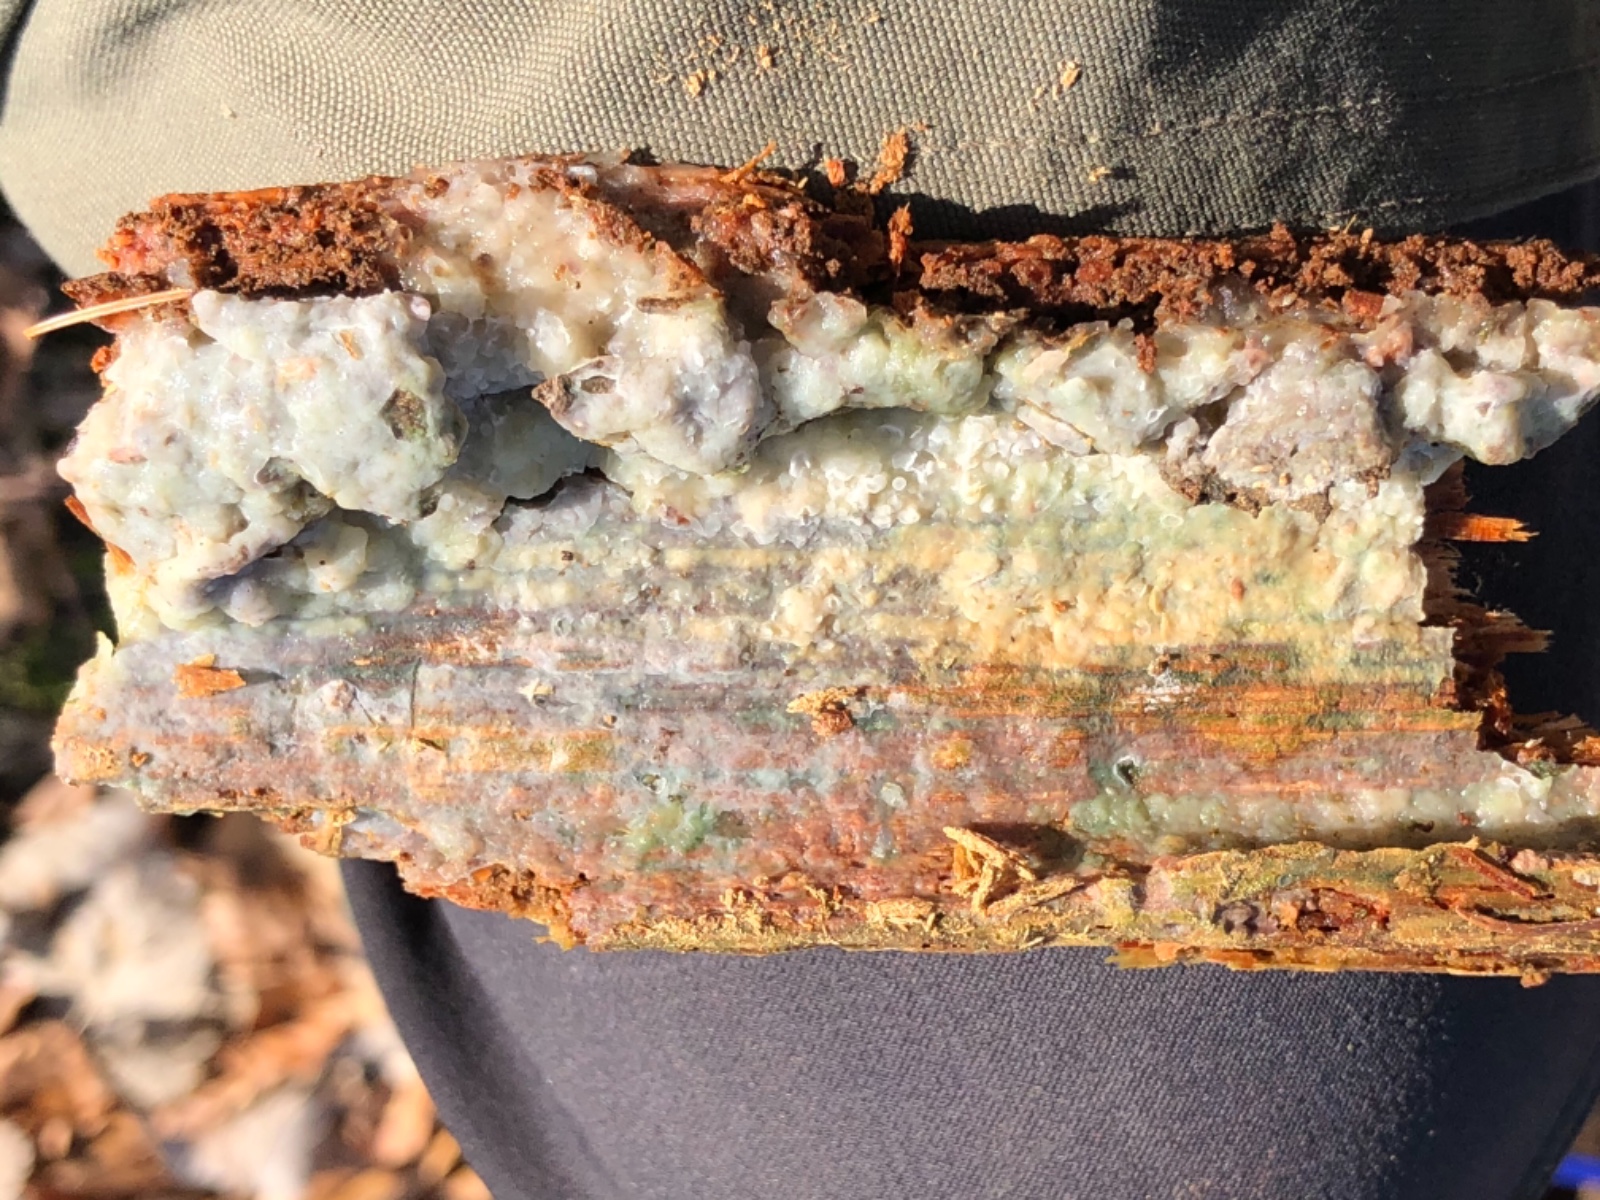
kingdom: Fungi
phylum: Basidiomycota
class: Agaricomycetes
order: Polyporales
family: Phanerochaetaceae
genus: Phlebiopsis
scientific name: Phlebiopsis gigantea
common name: kæmpebarksvamp
